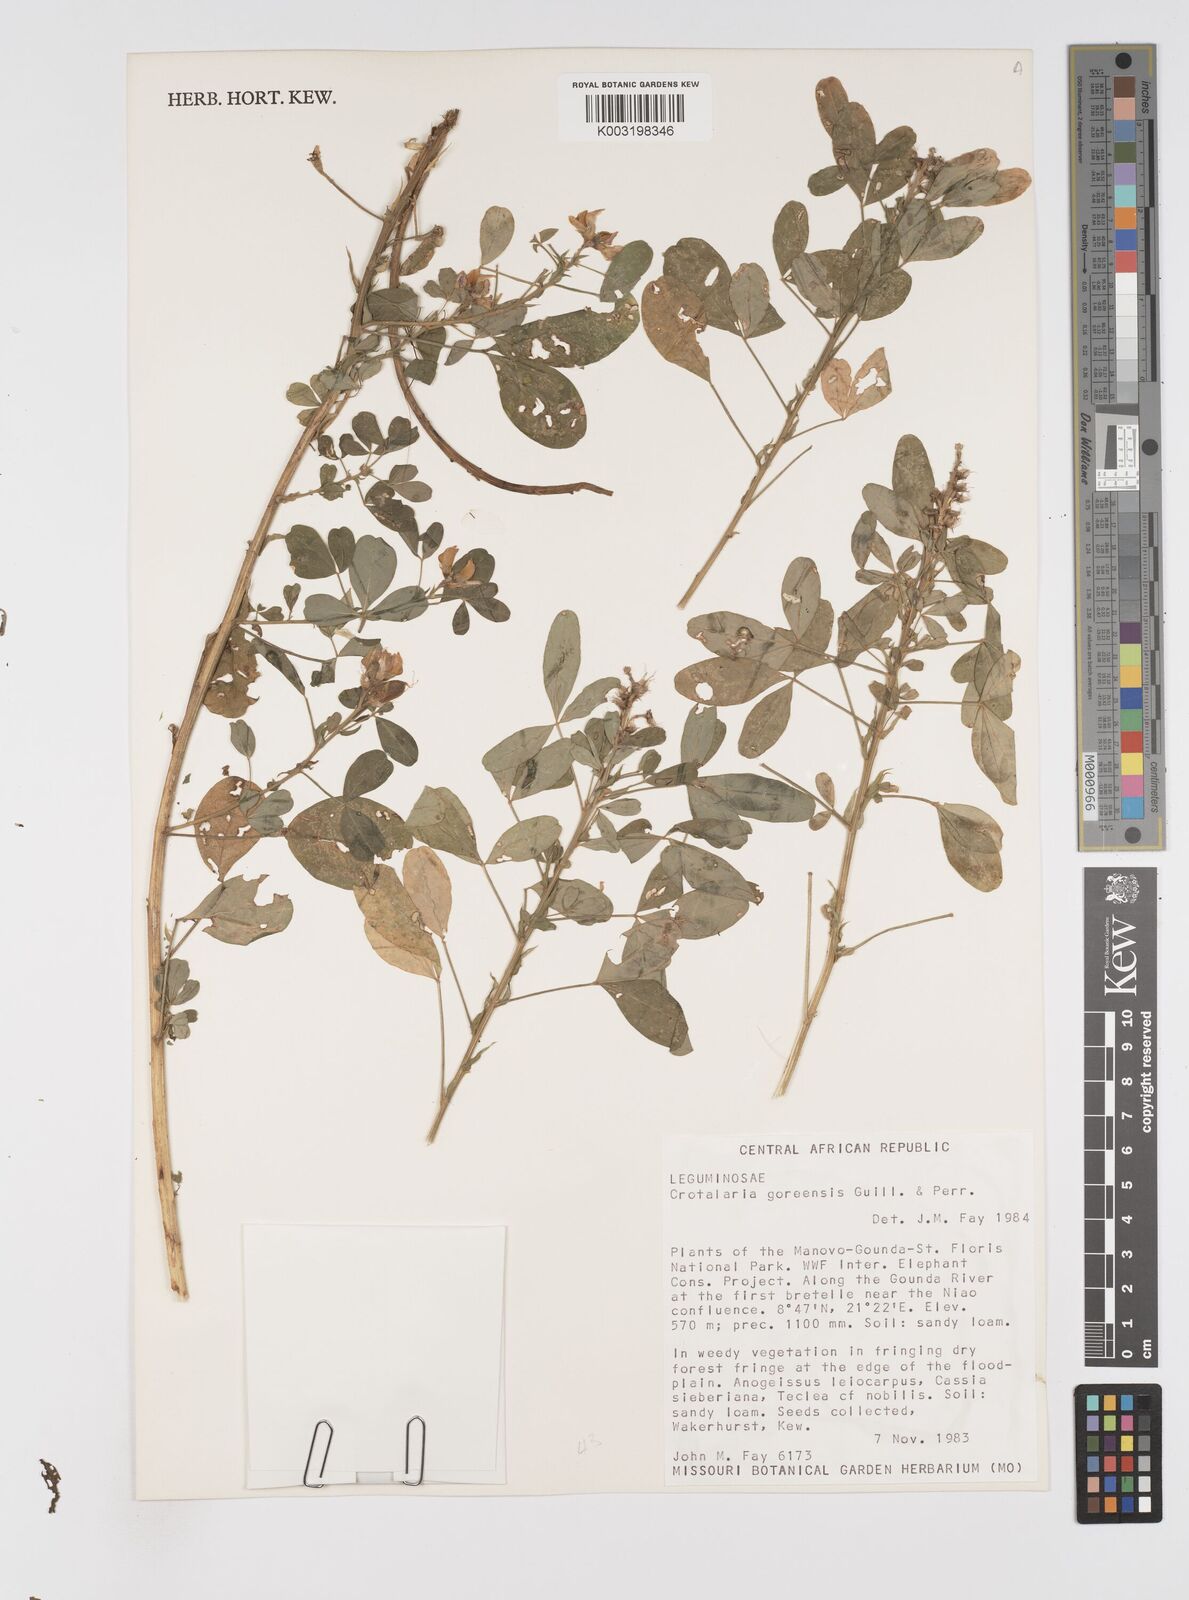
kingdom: Plantae
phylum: Tracheophyta
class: Magnoliopsida
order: Fabales
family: Fabaceae
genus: Crotalaria
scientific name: Crotalaria goreensis
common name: Gambia-pea
